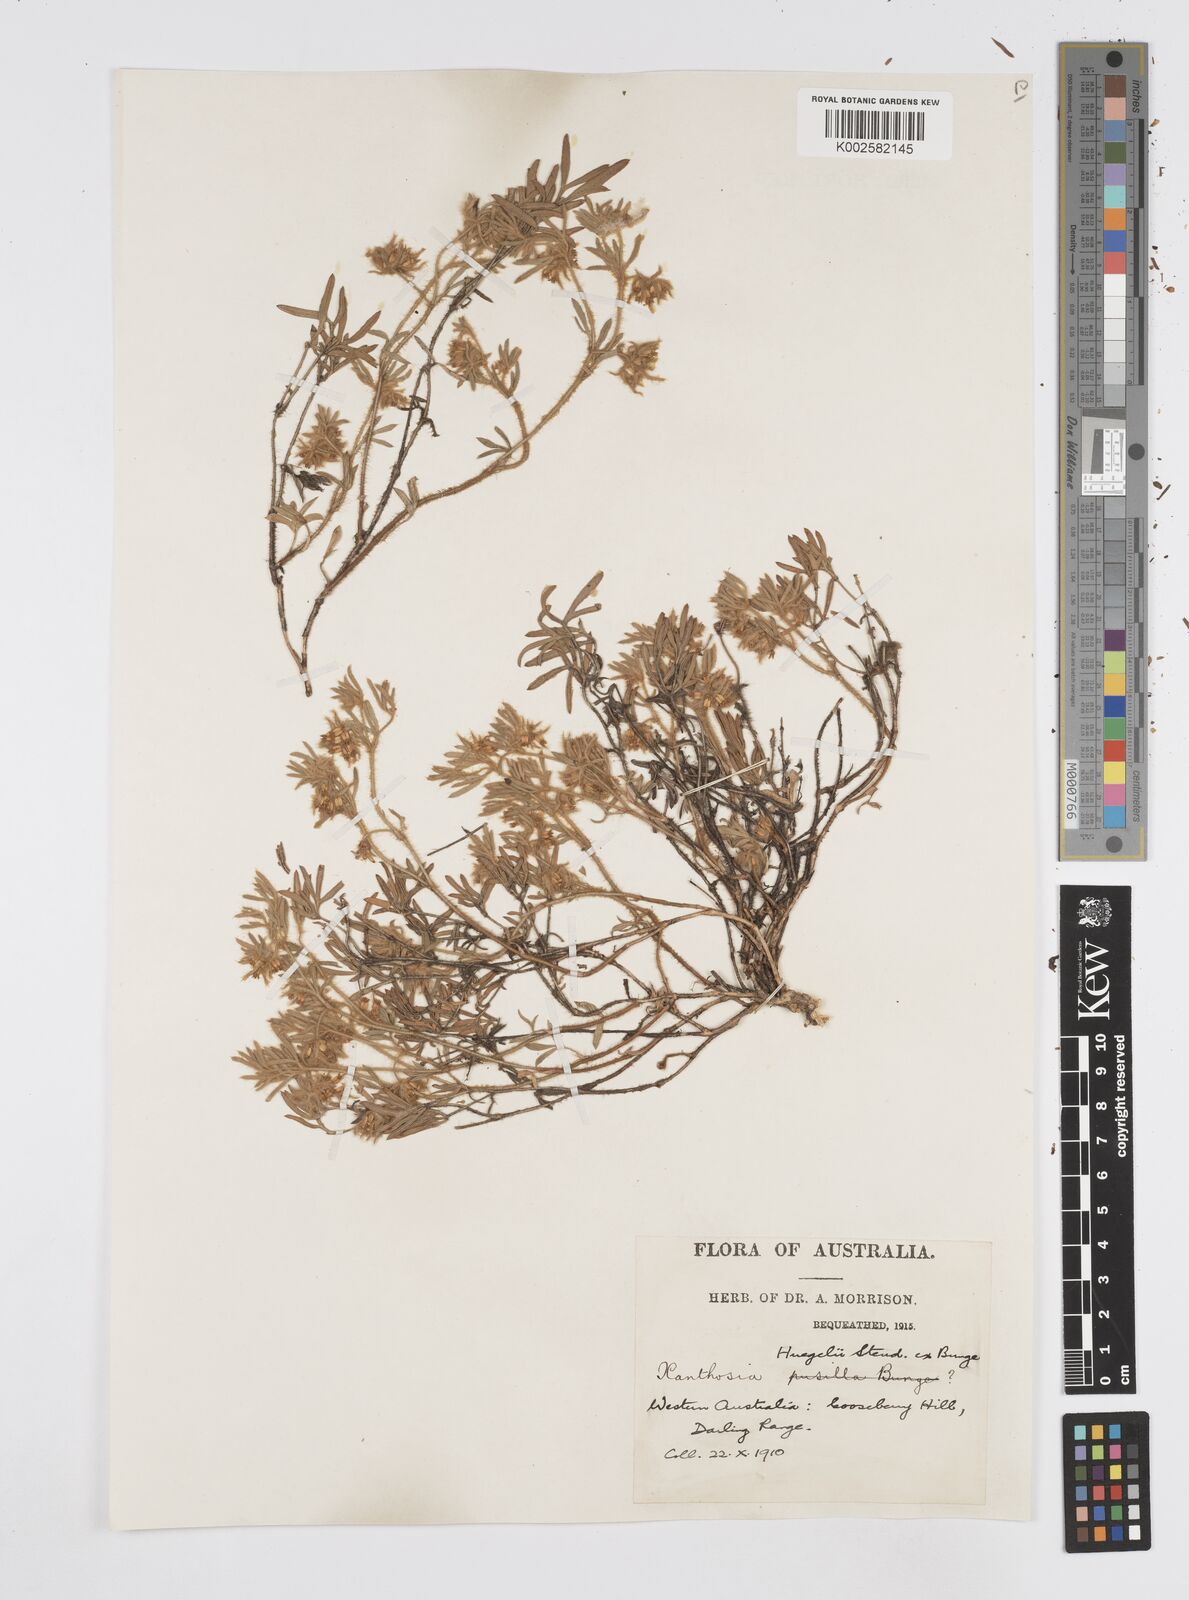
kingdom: Plantae
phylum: Tracheophyta
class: Magnoliopsida
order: Apiales
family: Apiaceae
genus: Xanthosia
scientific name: Xanthosia huegelii
